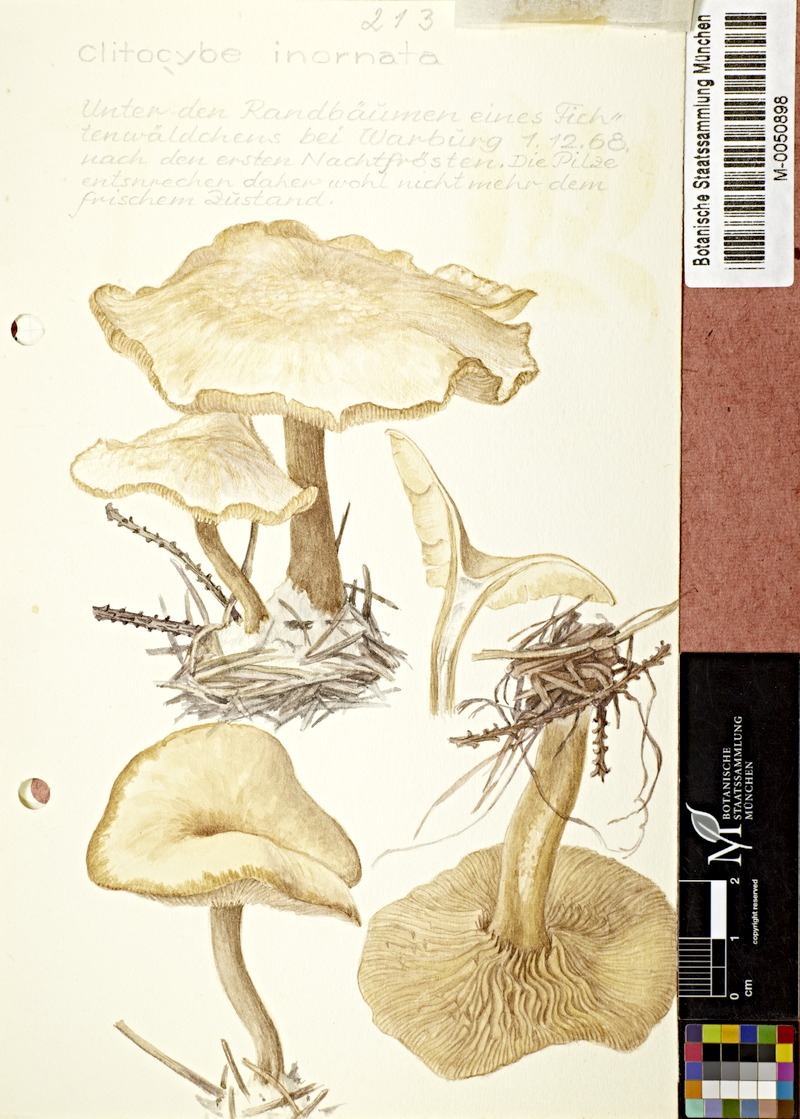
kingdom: Fungi
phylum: Basidiomycota
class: Agaricomycetes
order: Agaricales
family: Tricholomataceae
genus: Atractosporocybe
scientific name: Atractosporocybe inornata
